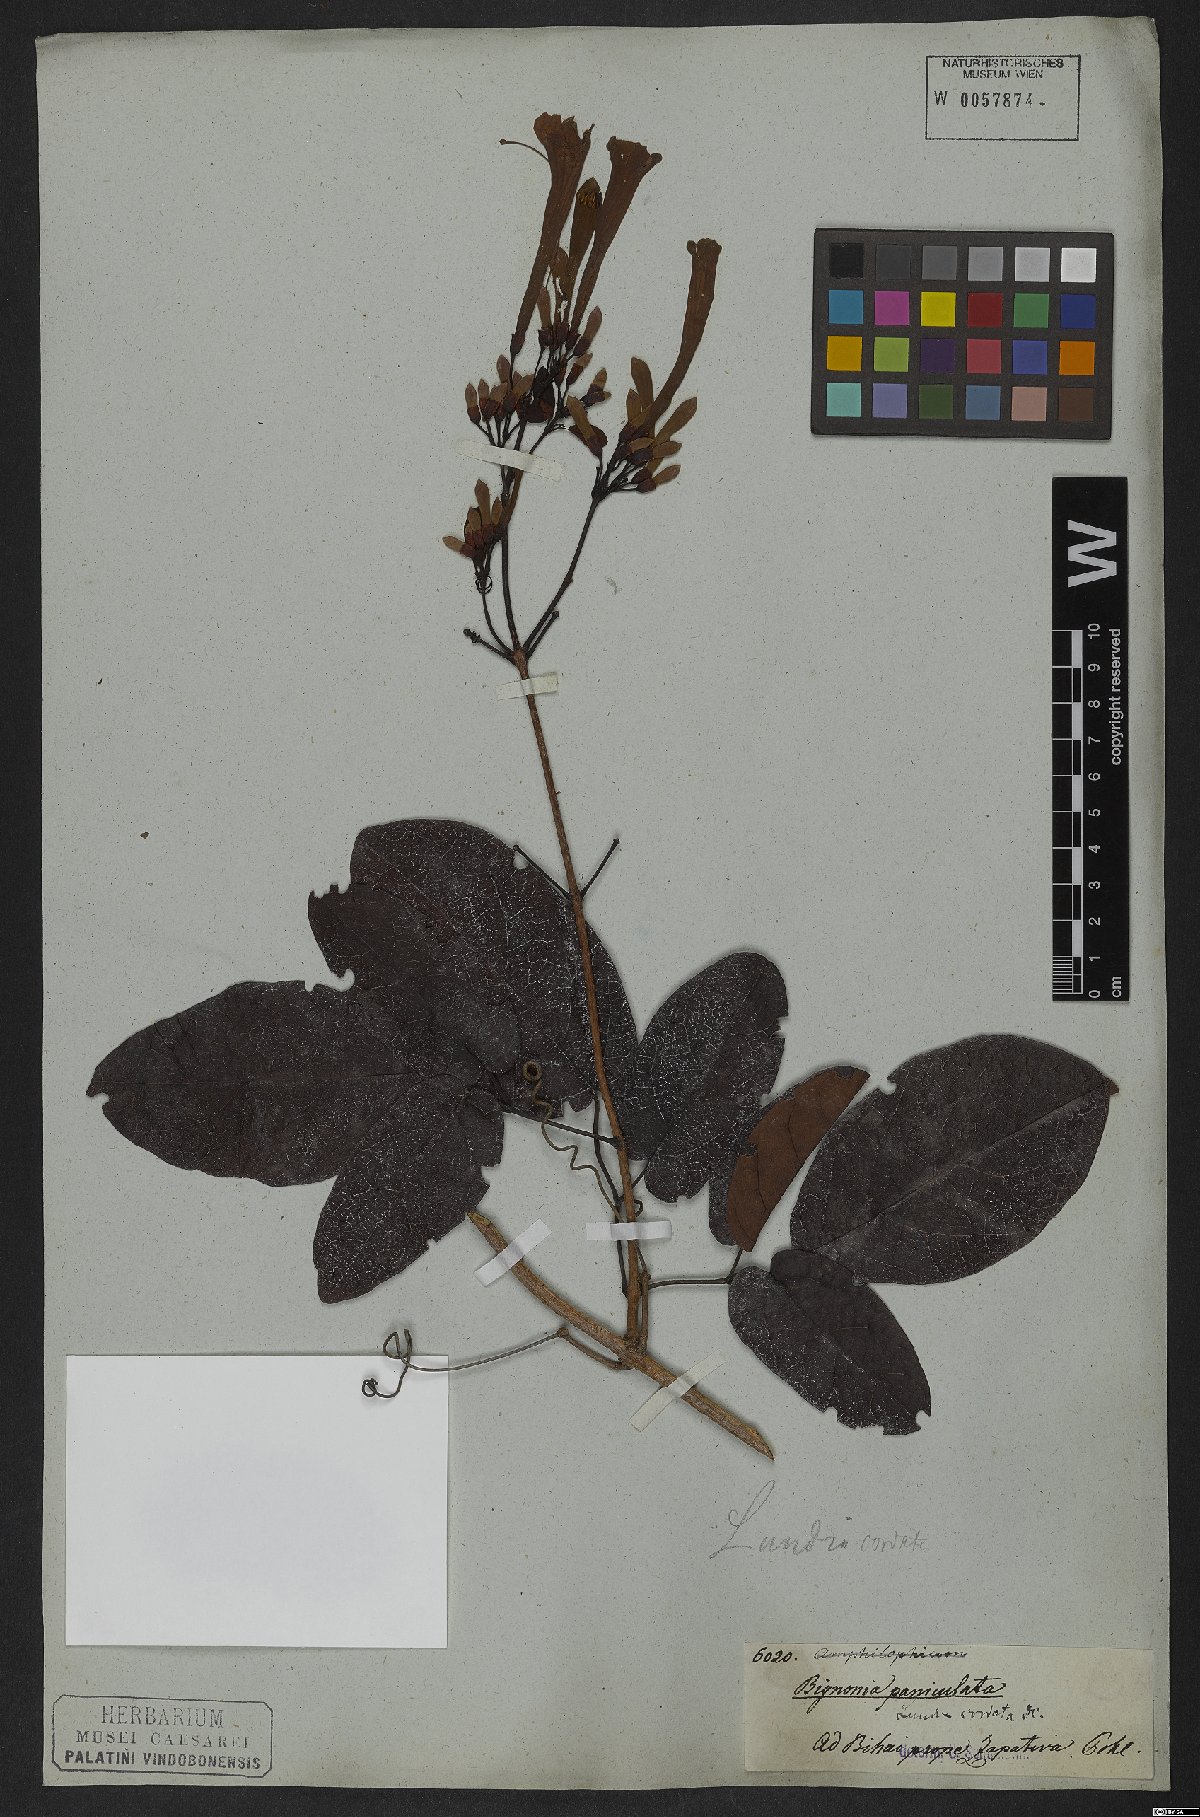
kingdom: Plantae
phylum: Tracheophyta
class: Magnoliopsida
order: Lamiales
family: Bignoniaceae
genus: Lundia
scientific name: Lundia corymbifera
